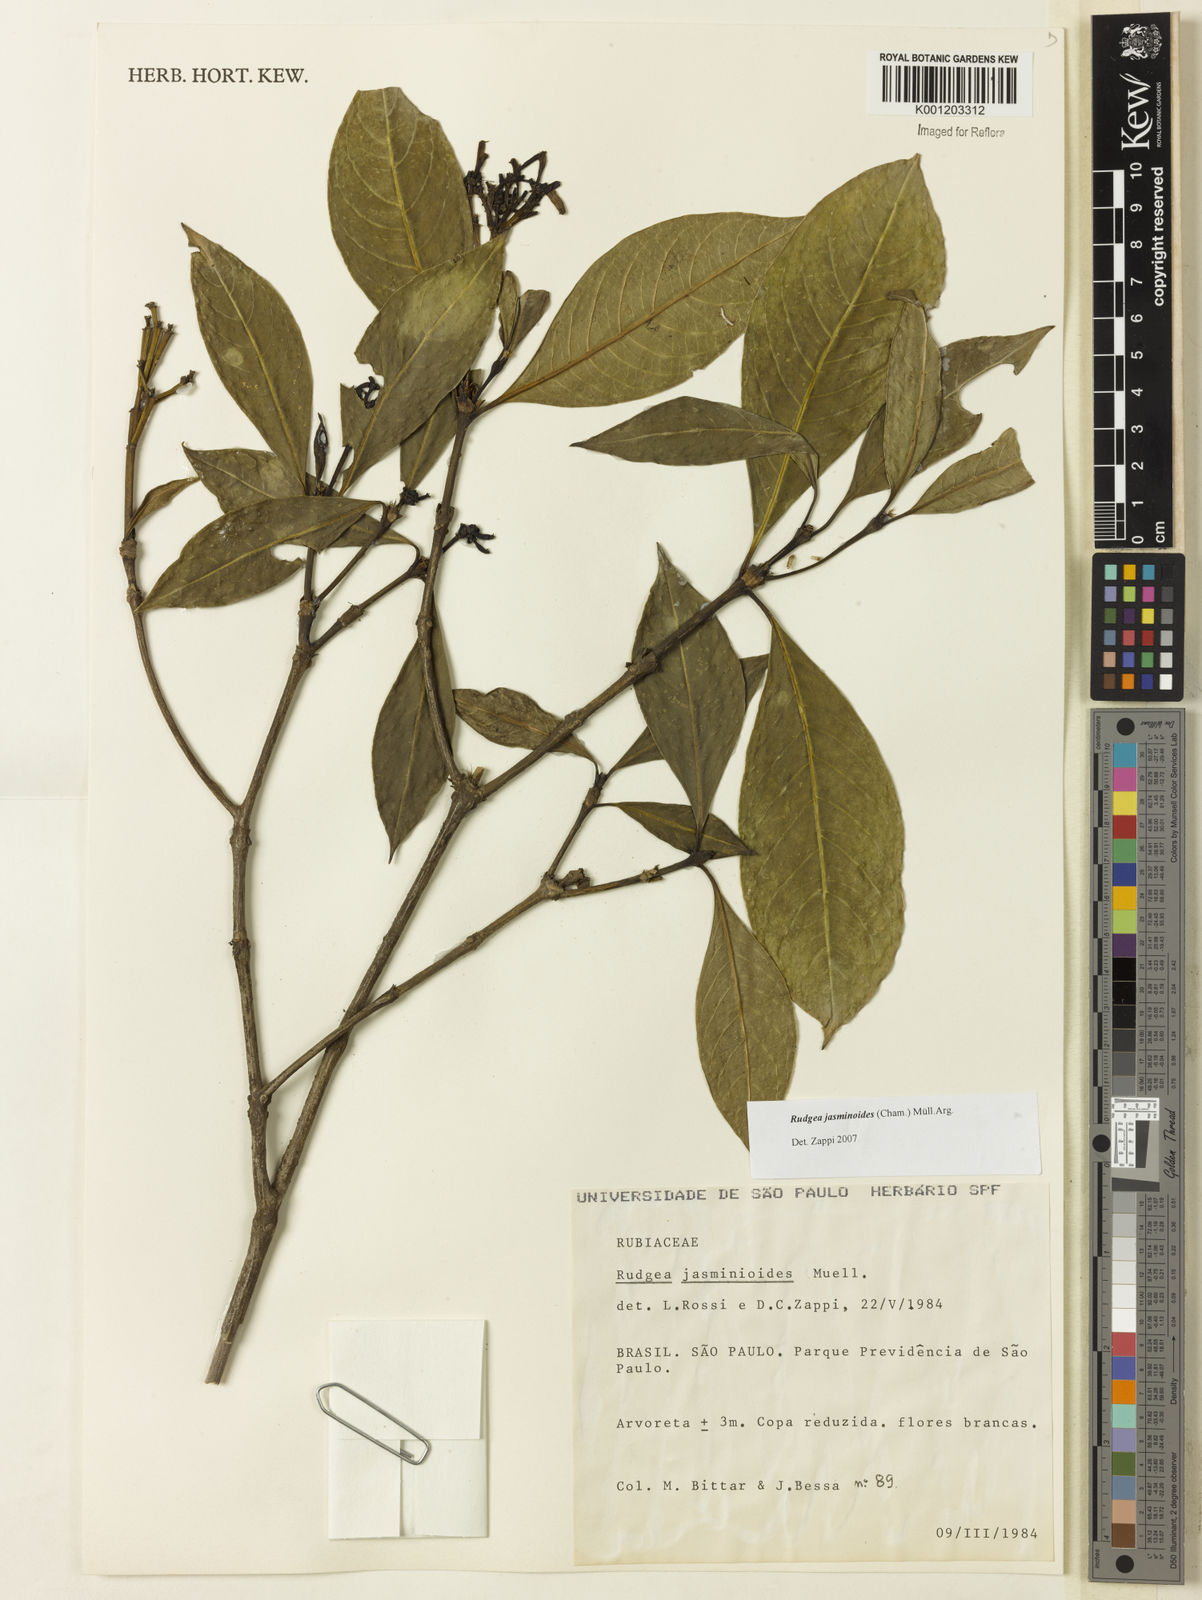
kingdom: Plantae
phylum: Tracheophyta
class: Magnoliopsida
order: Gentianales
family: Rubiaceae
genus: Rudgea
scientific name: Rudgea
